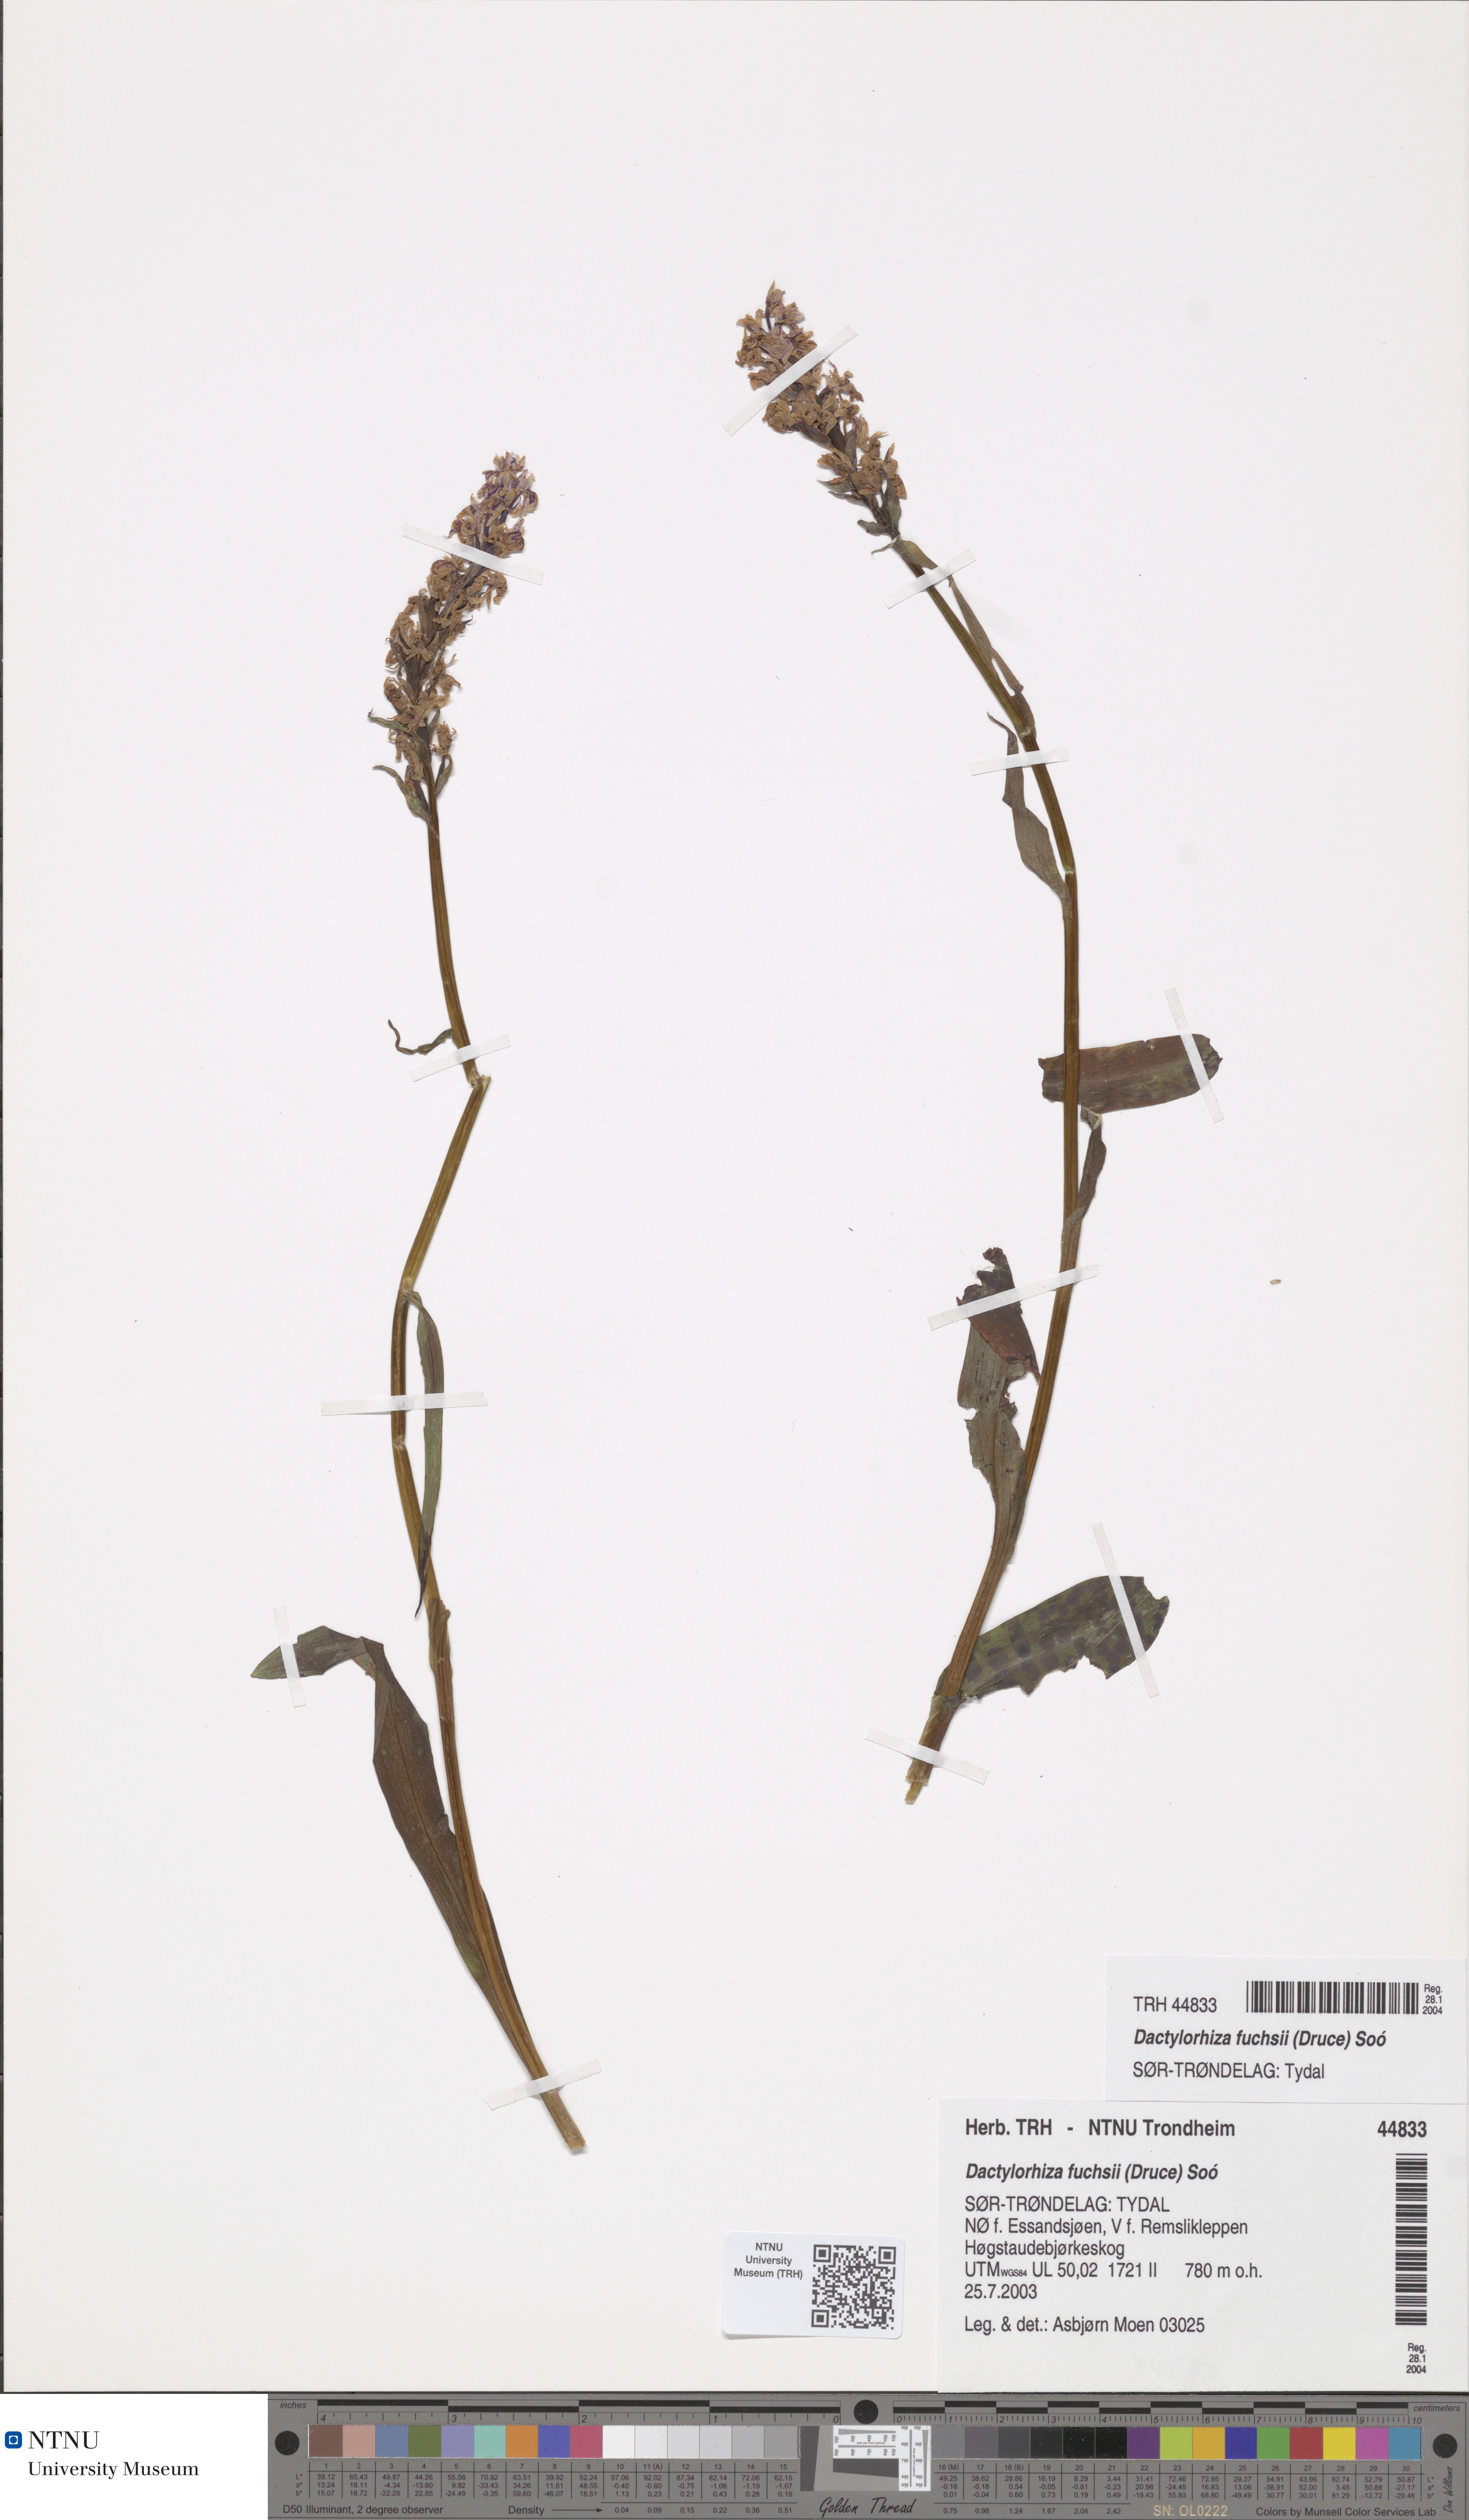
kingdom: Plantae
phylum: Tracheophyta
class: Liliopsida
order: Asparagales
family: Orchidaceae
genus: Dactylorhiza
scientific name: Dactylorhiza maculata
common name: Heath spotted-orchid
